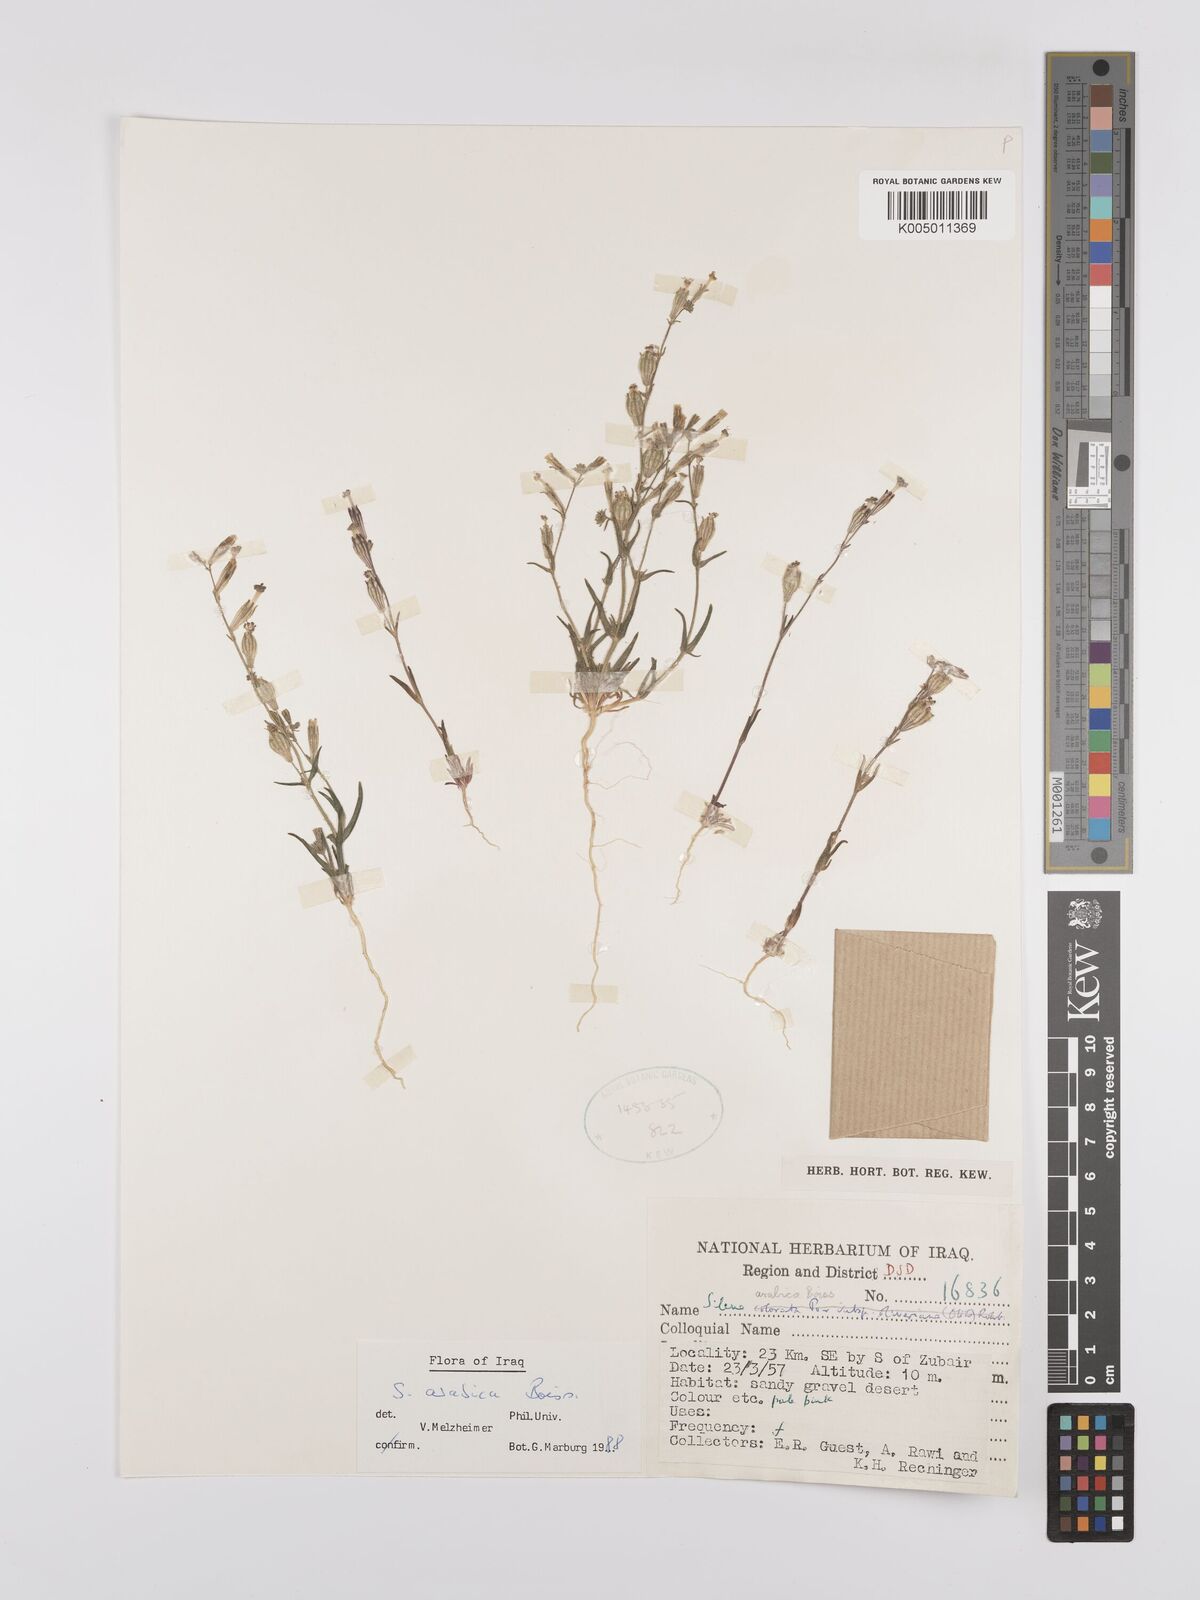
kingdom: Plantae
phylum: Tracheophyta
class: Magnoliopsida
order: Caryophyllales
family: Caryophyllaceae
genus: Silene
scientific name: Silene arabica
